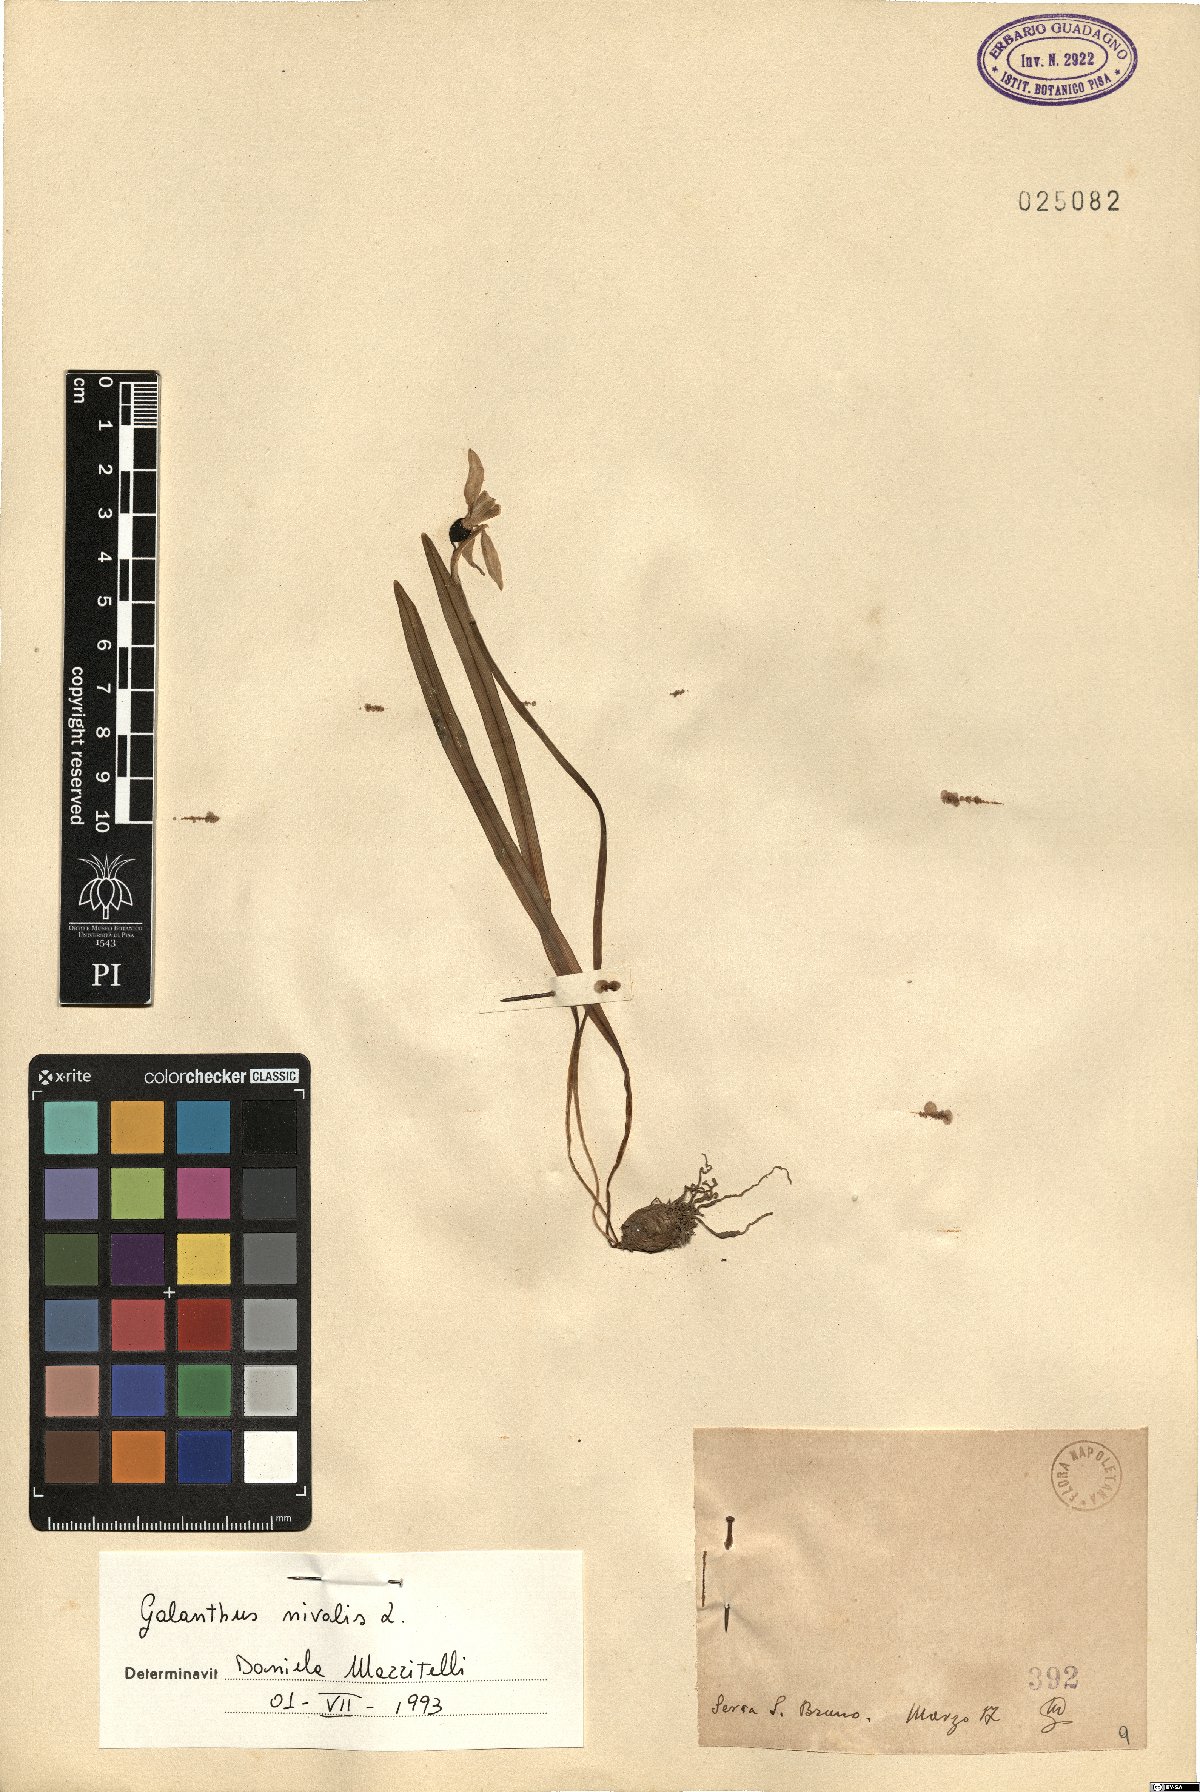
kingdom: Plantae
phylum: Tracheophyta
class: Liliopsida
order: Asparagales
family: Amaryllidaceae
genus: Galanthus
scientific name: Galanthus nivalis
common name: Snowdrop
